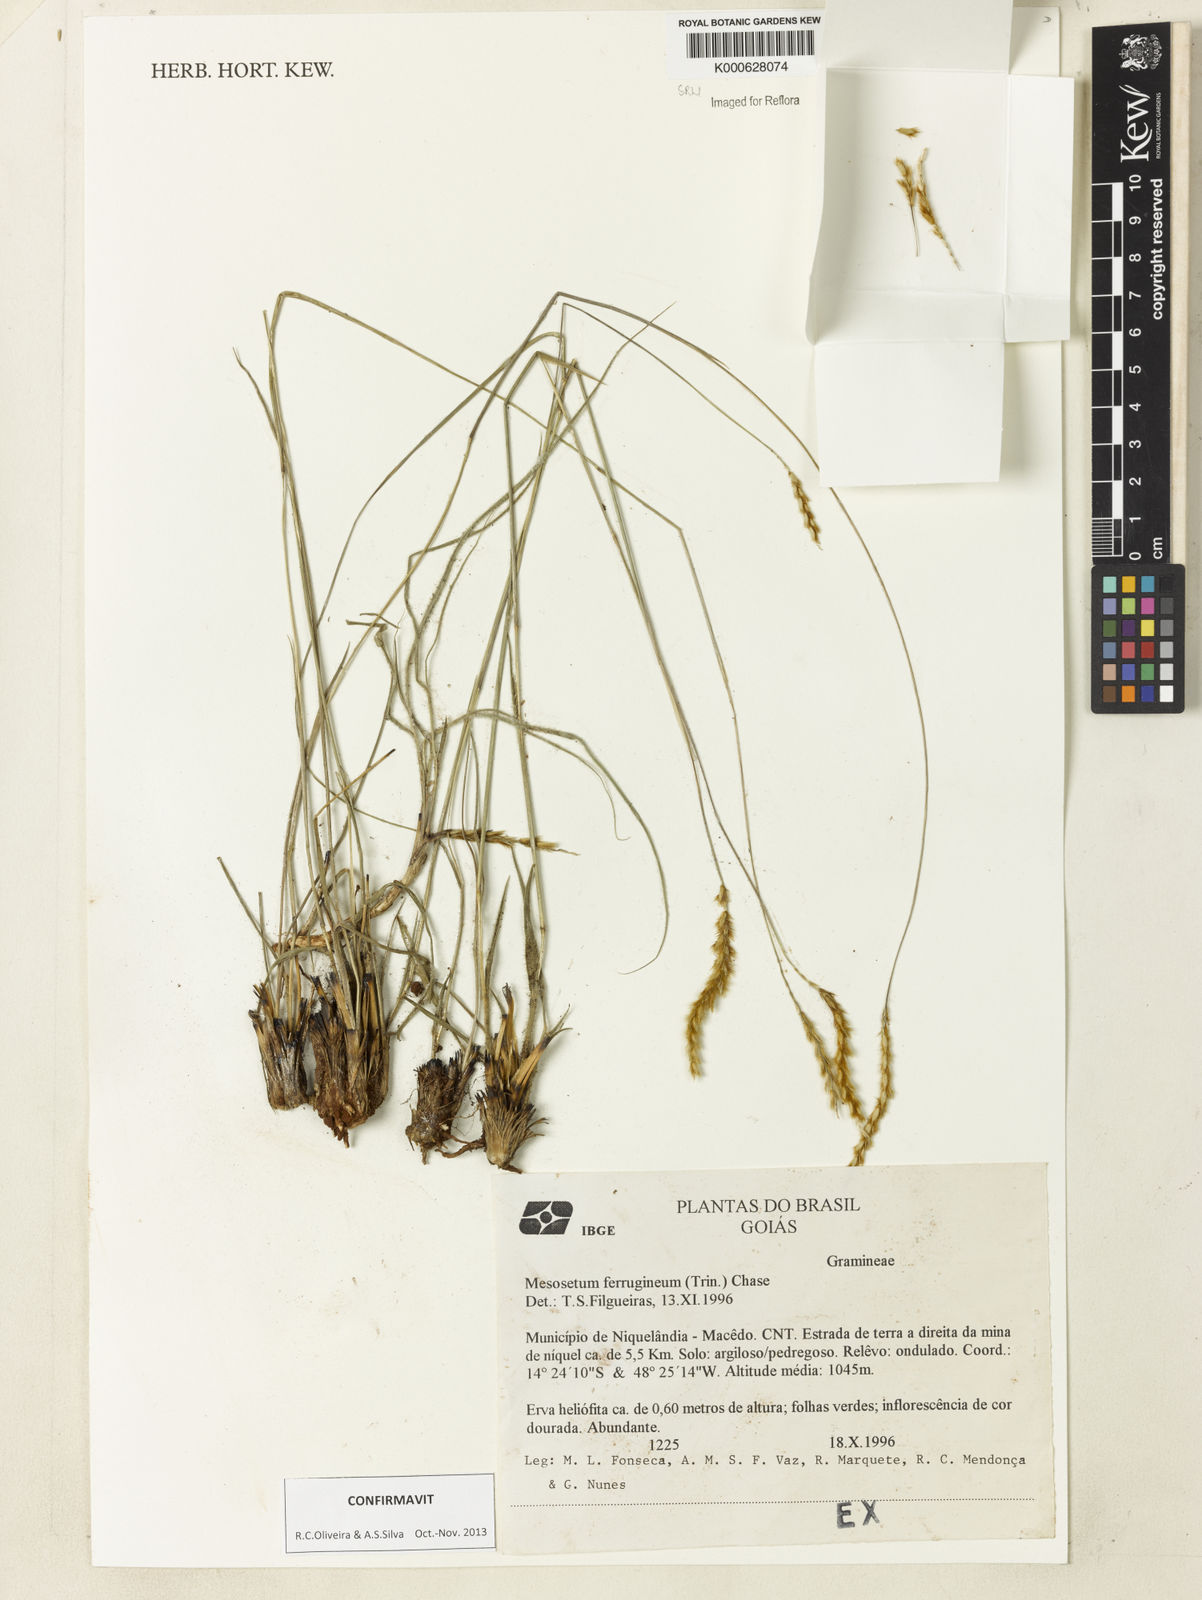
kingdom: Plantae
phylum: Tracheophyta
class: Liliopsida
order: Poales
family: Poaceae
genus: Mesosetum
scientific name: Mesosetum ferrugineum
